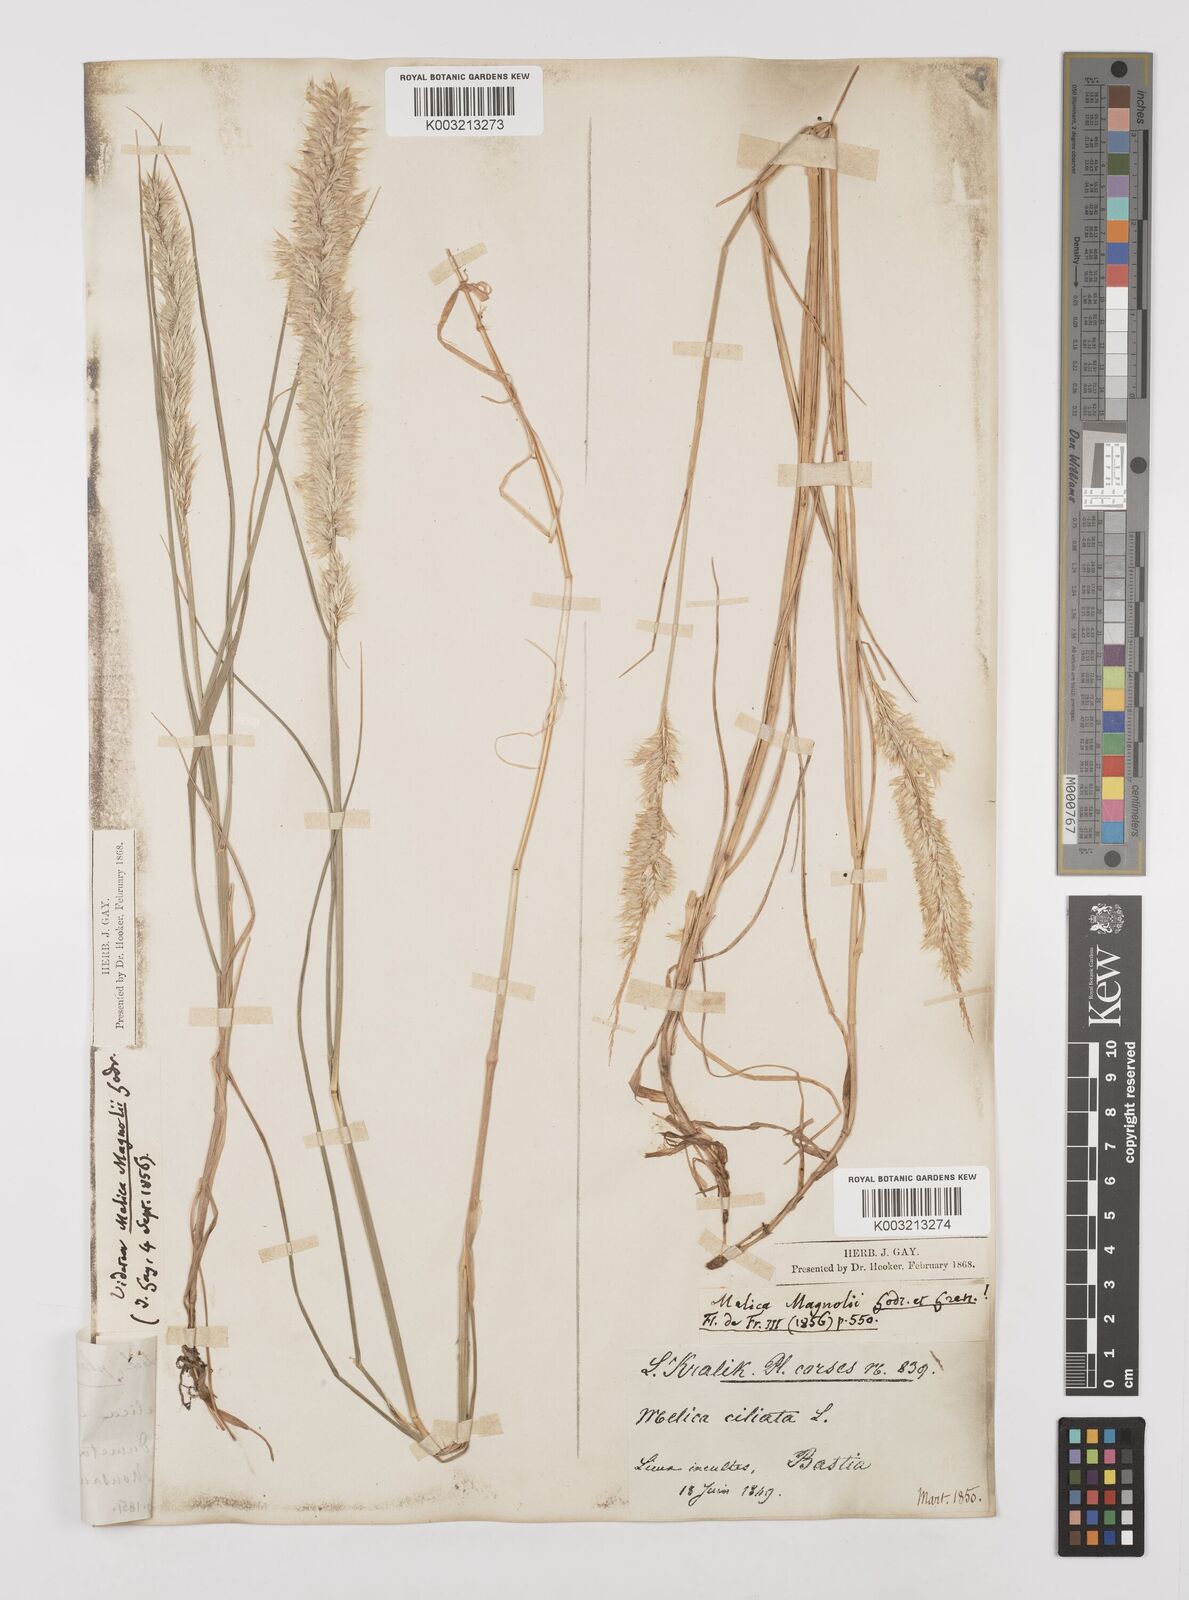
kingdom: Plantae
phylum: Tracheophyta
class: Liliopsida
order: Poales
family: Poaceae
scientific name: Poaceae
